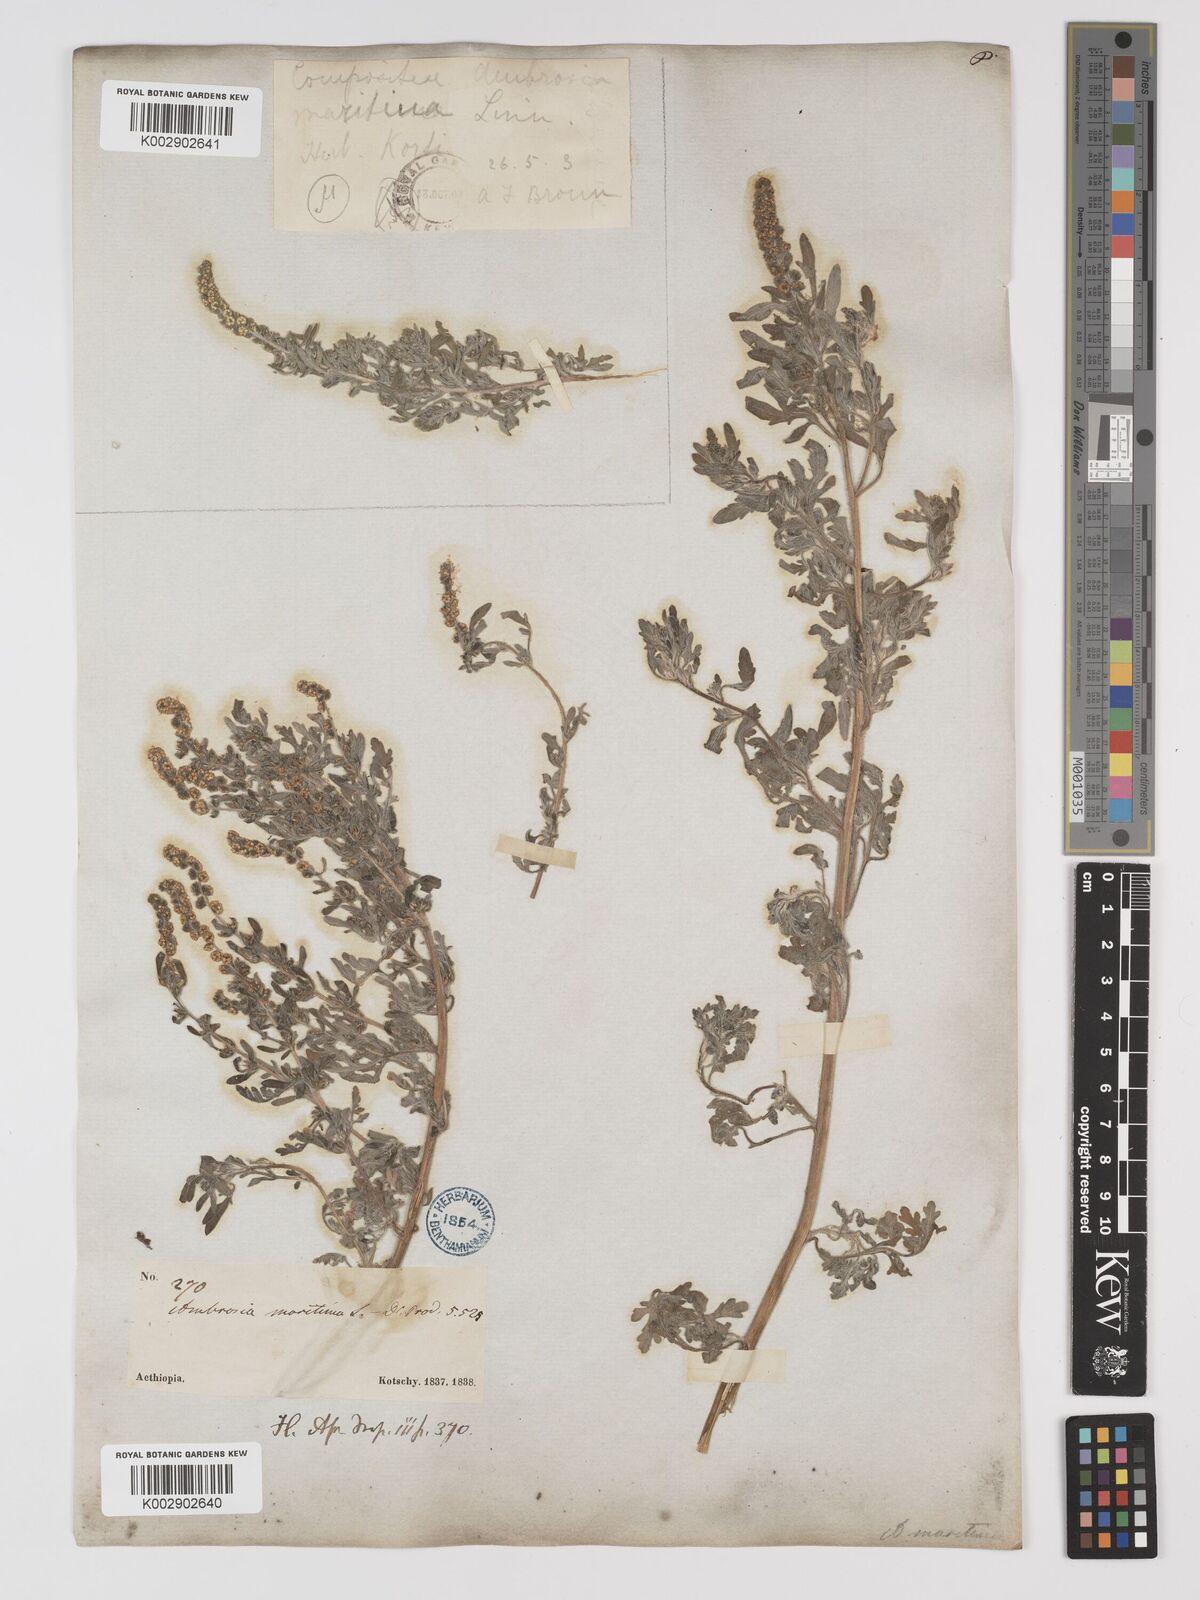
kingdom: Plantae
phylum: Tracheophyta
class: Magnoliopsida
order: Asterales
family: Asteraceae
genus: Ambrosia
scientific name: Ambrosia maritima
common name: Sea ambrosia
